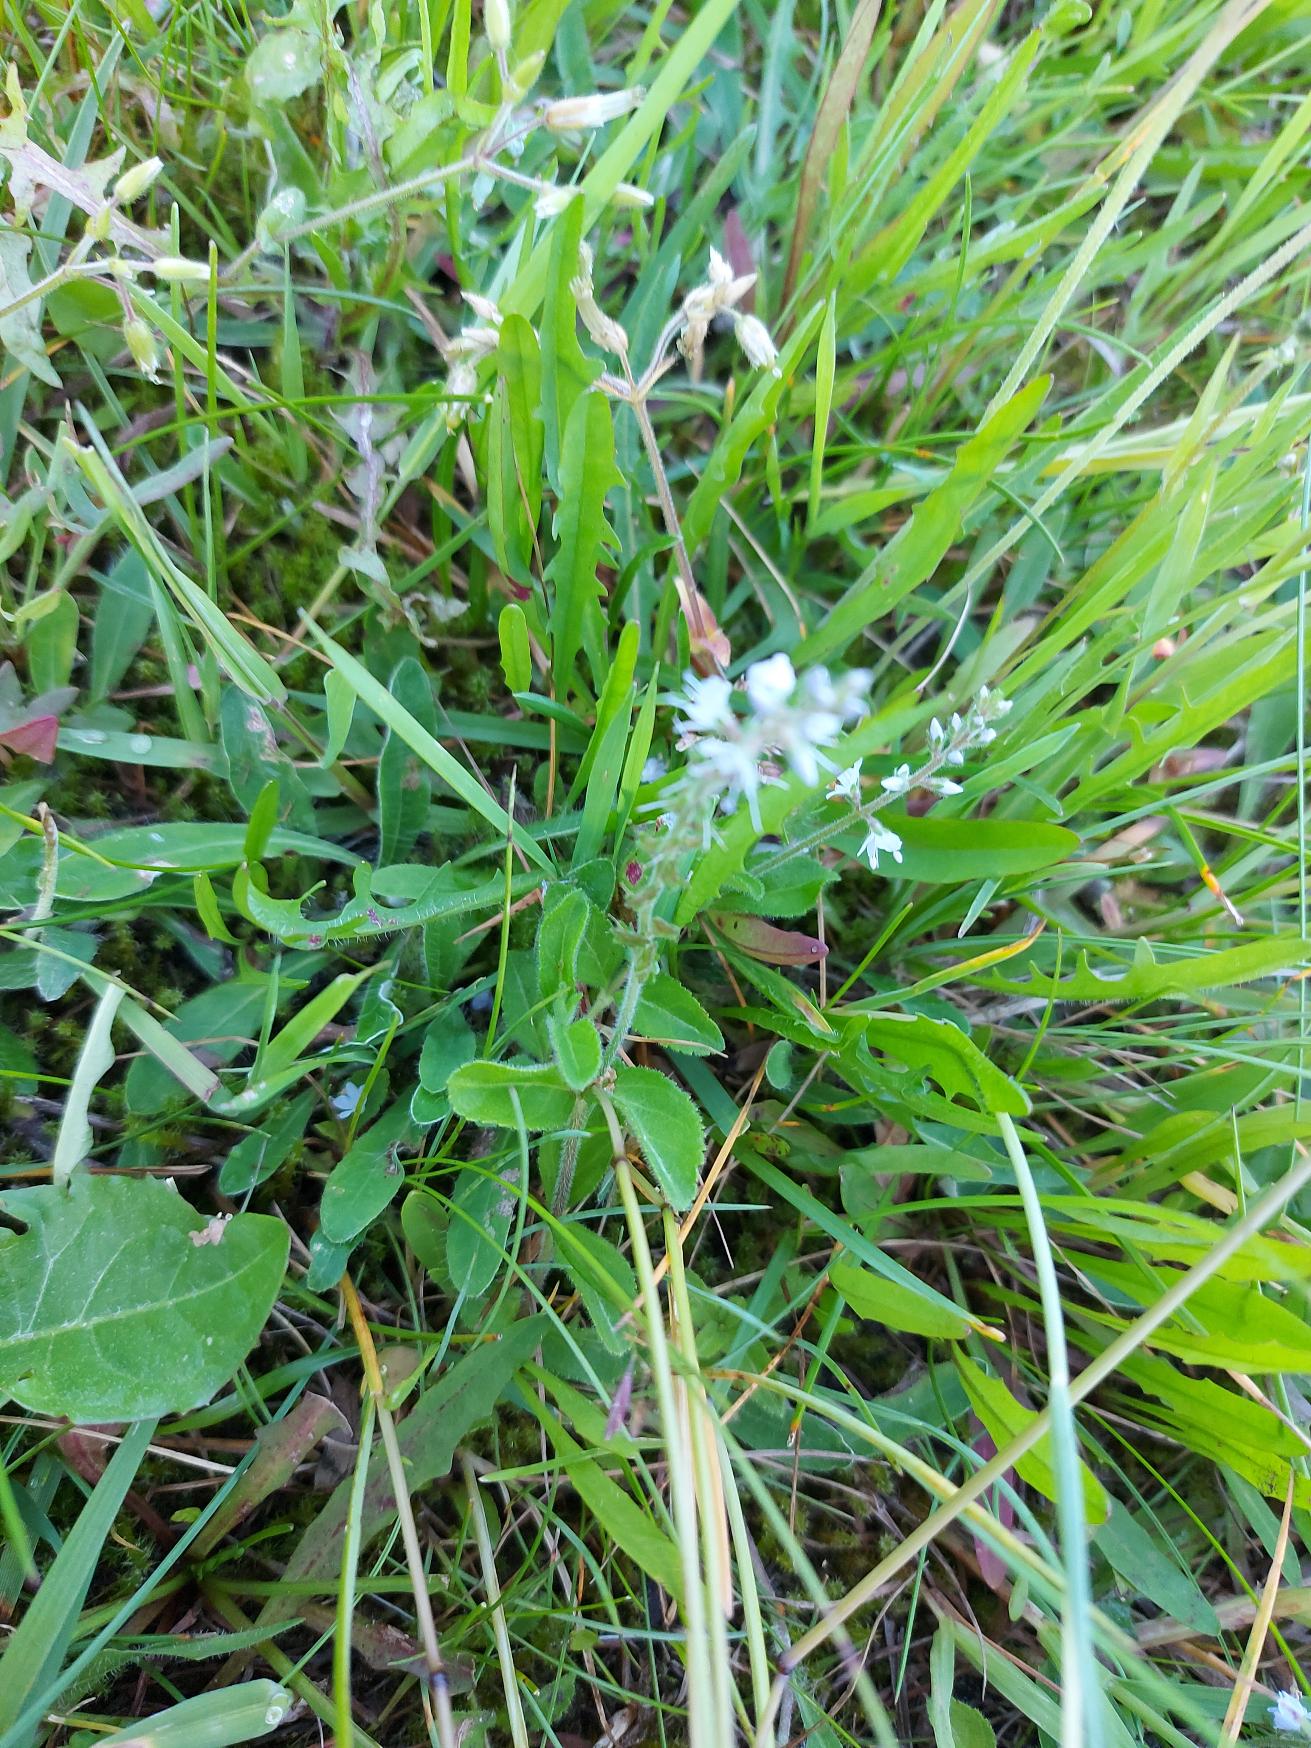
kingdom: Plantae
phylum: Tracheophyta
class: Magnoliopsida
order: Lamiales
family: Plantaginaceae
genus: Veronica
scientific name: Veronica officinalis
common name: Læge-ærenpris
